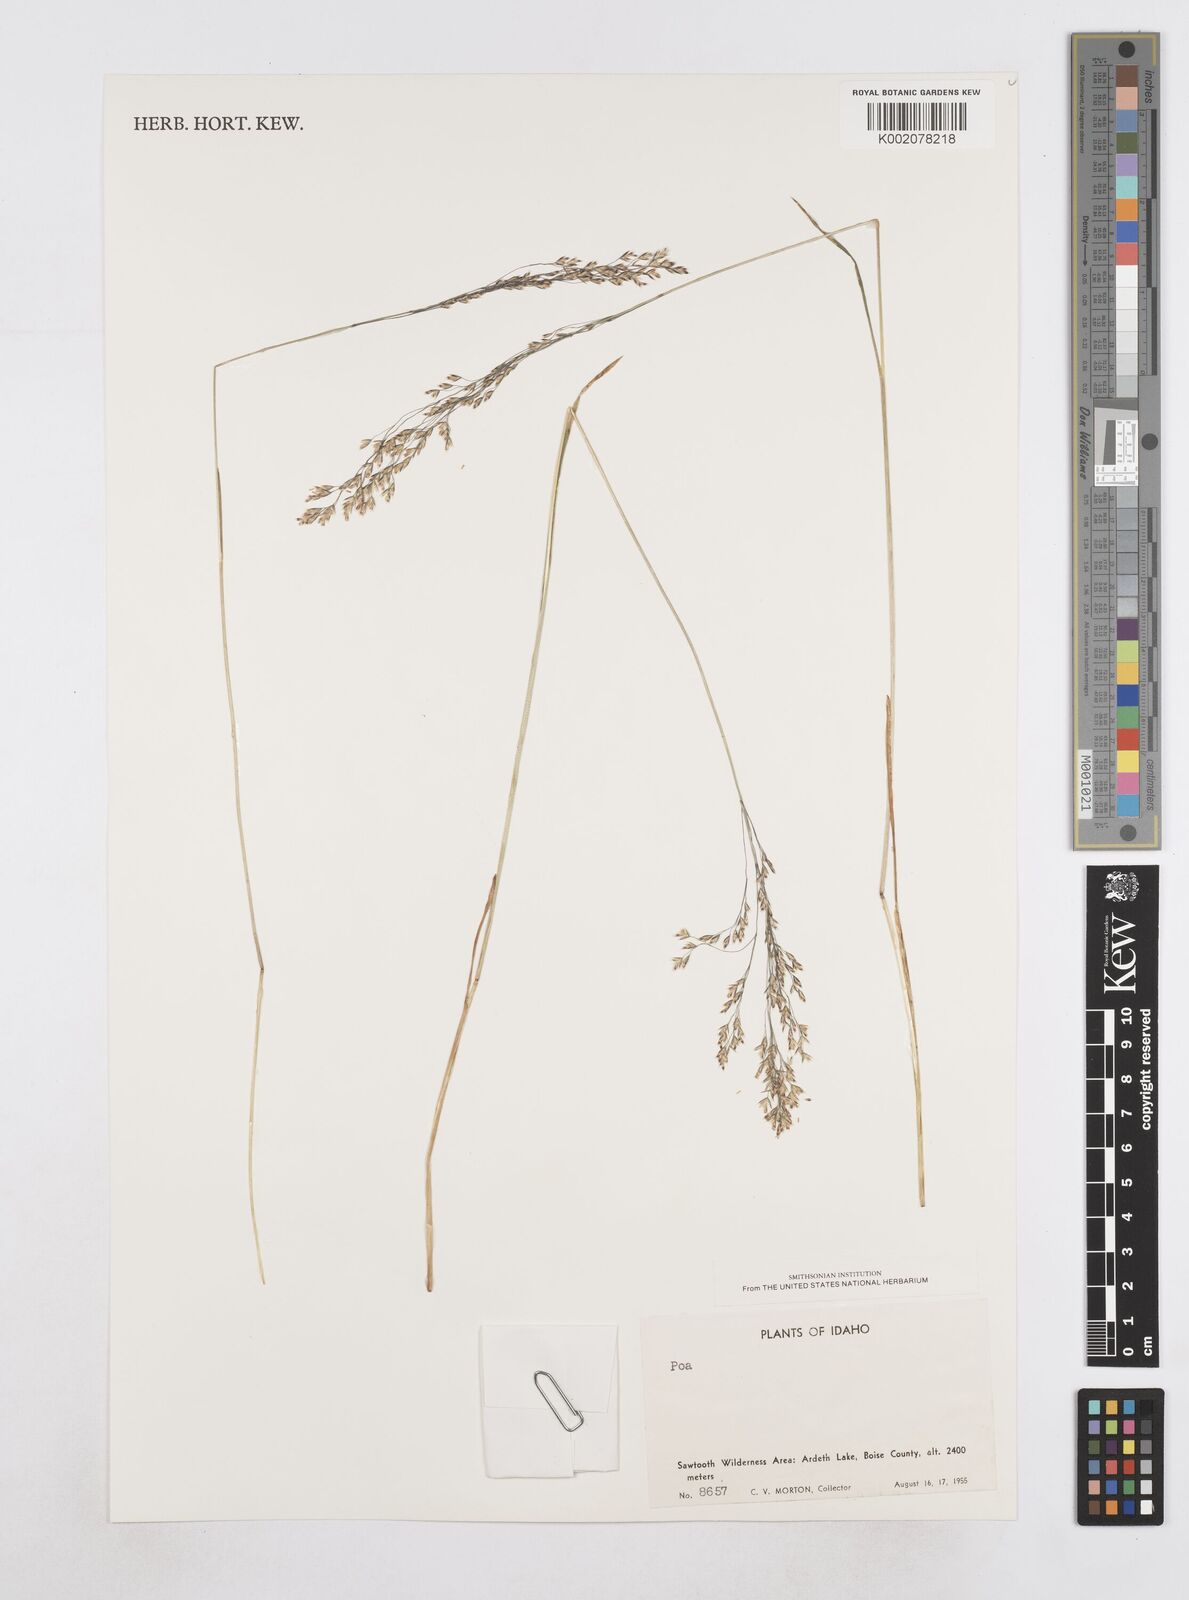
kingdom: Plantae
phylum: Tracheophyta
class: Liliopsida
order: Poales
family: Poaceae
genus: Poa
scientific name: Poa
